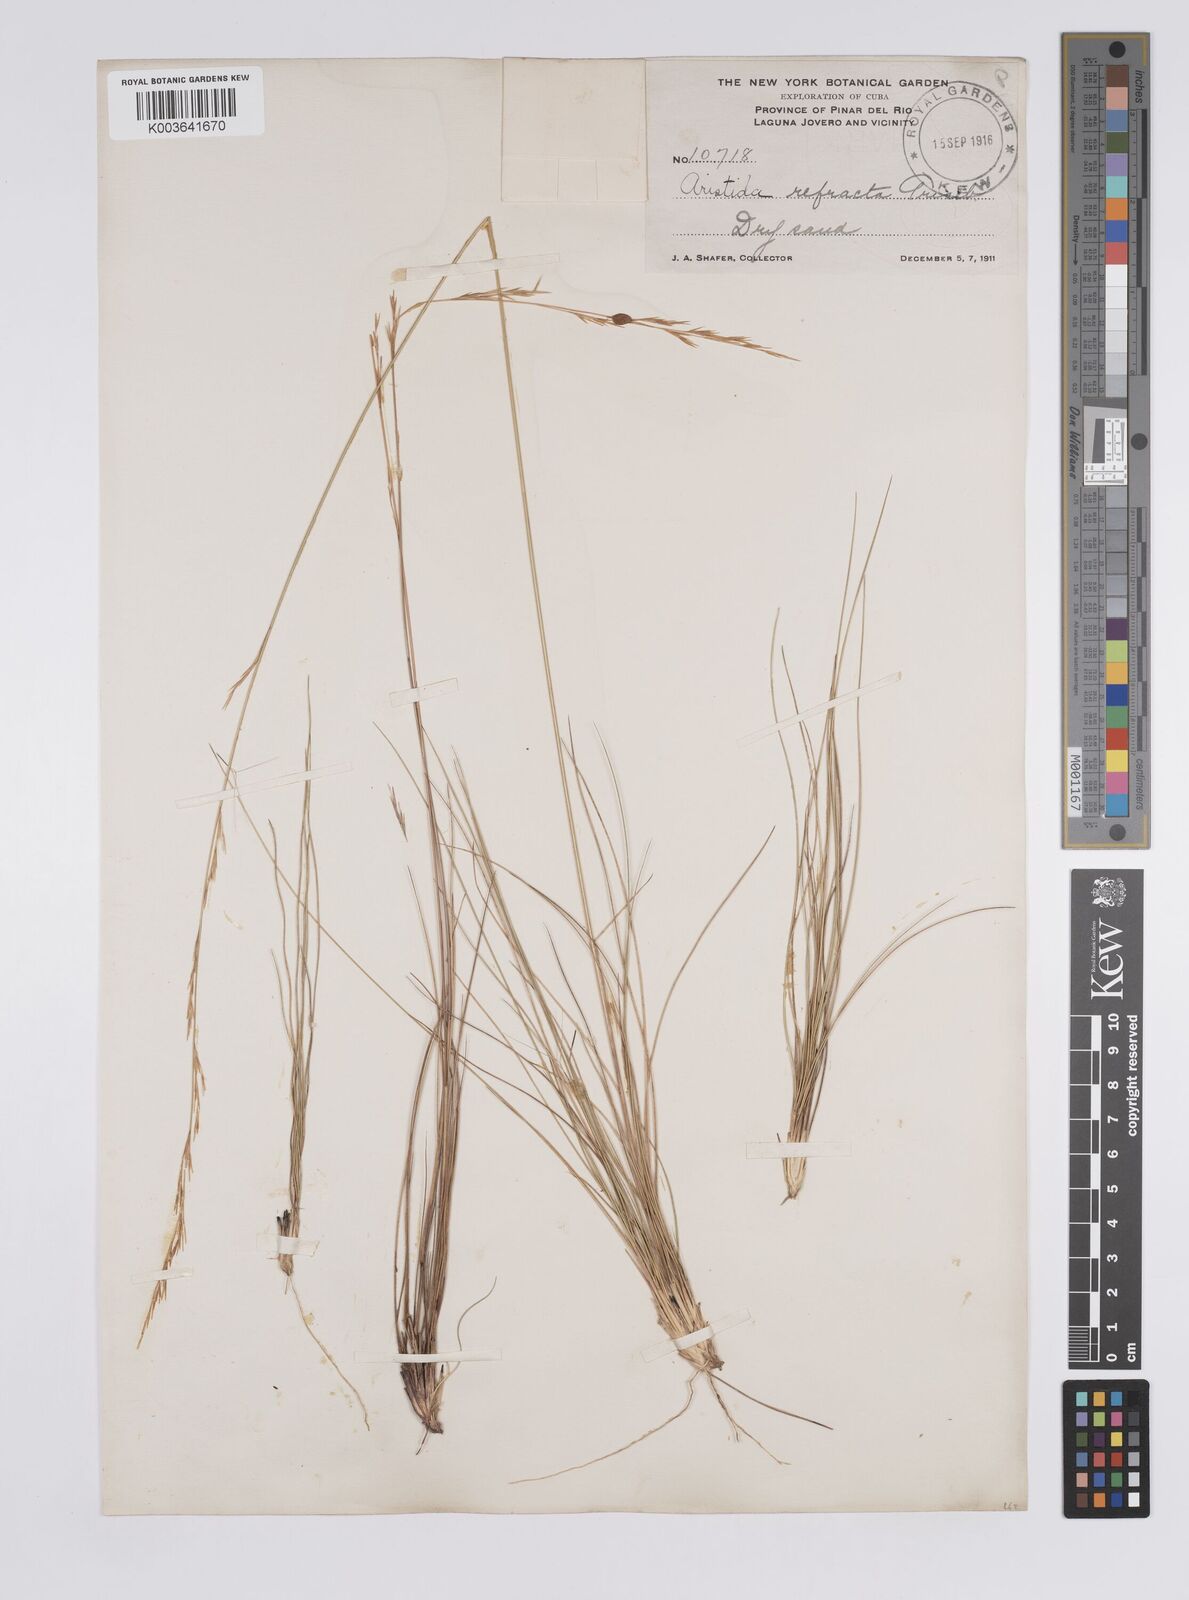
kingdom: Plantae
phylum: Tracheophyta
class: Liliopsida
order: Poales
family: Poaceae
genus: Aristida
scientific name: Aristida refracta
